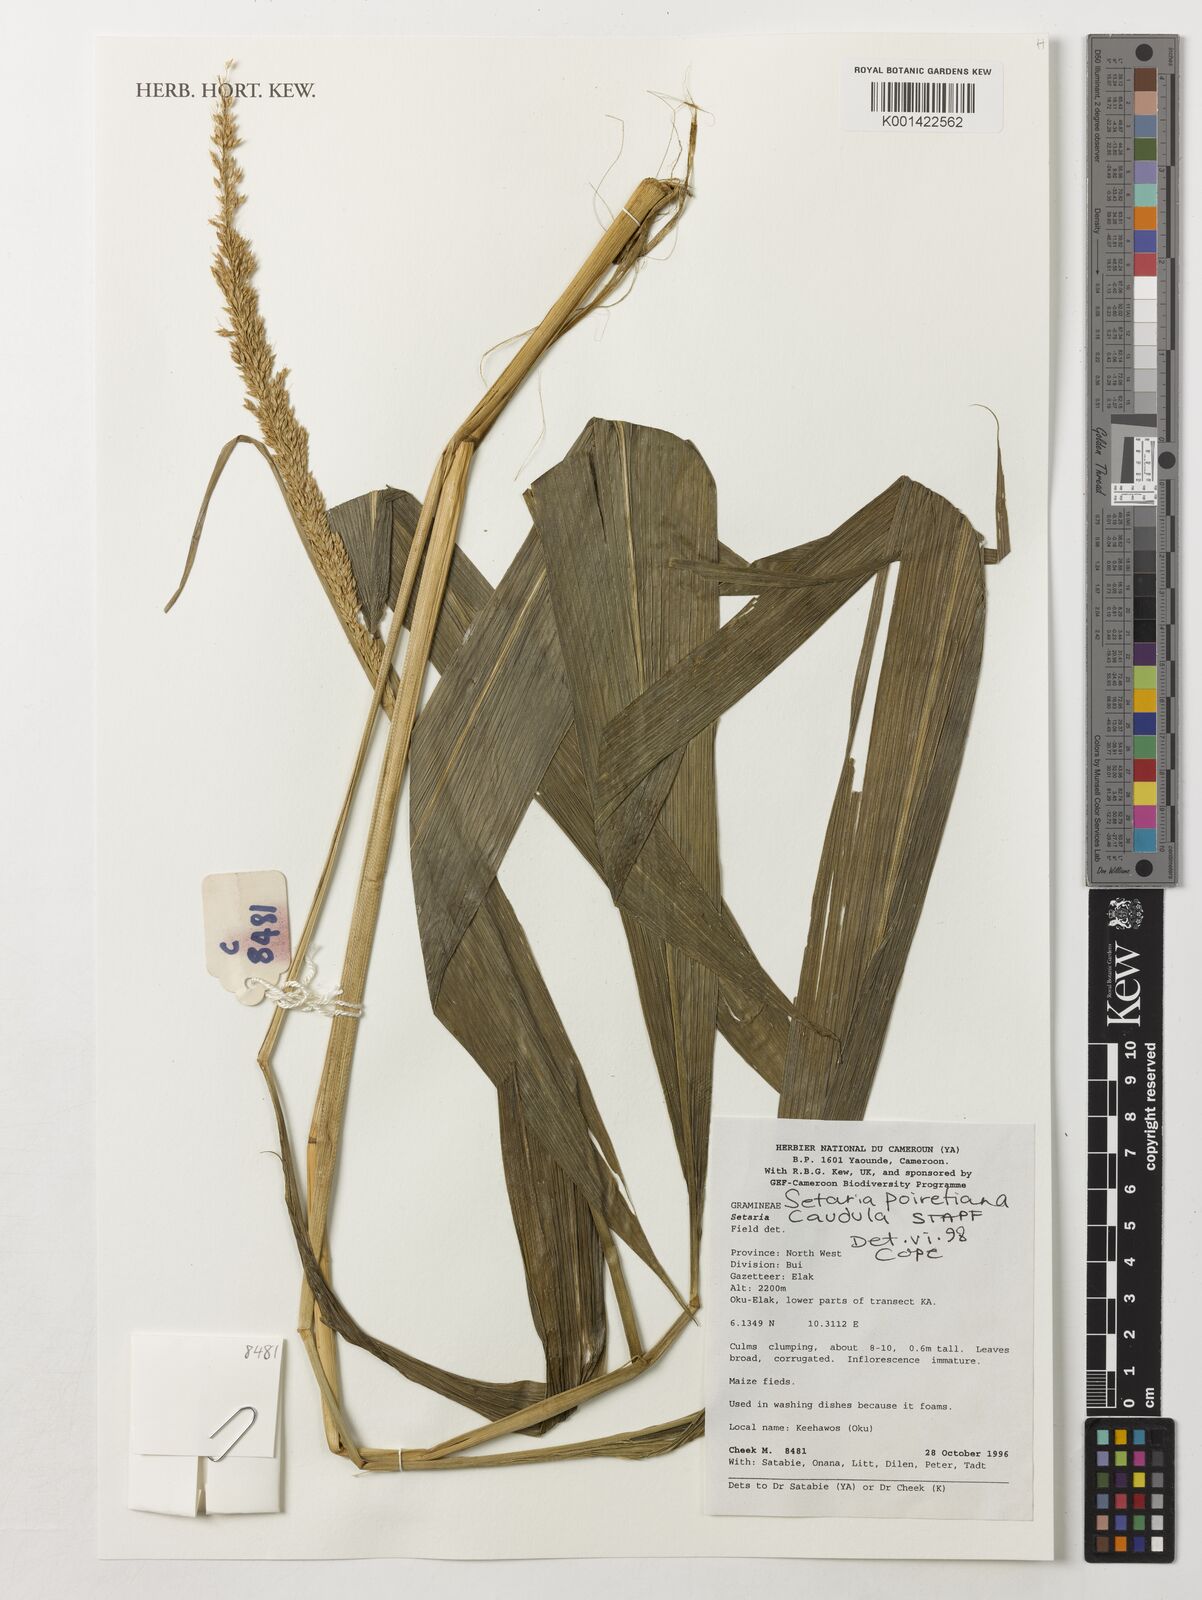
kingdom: Plantae
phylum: Tracheophyta
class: Liliopsida
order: Poales
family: Poaceae
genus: Setaria
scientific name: Setaria poiretiana
